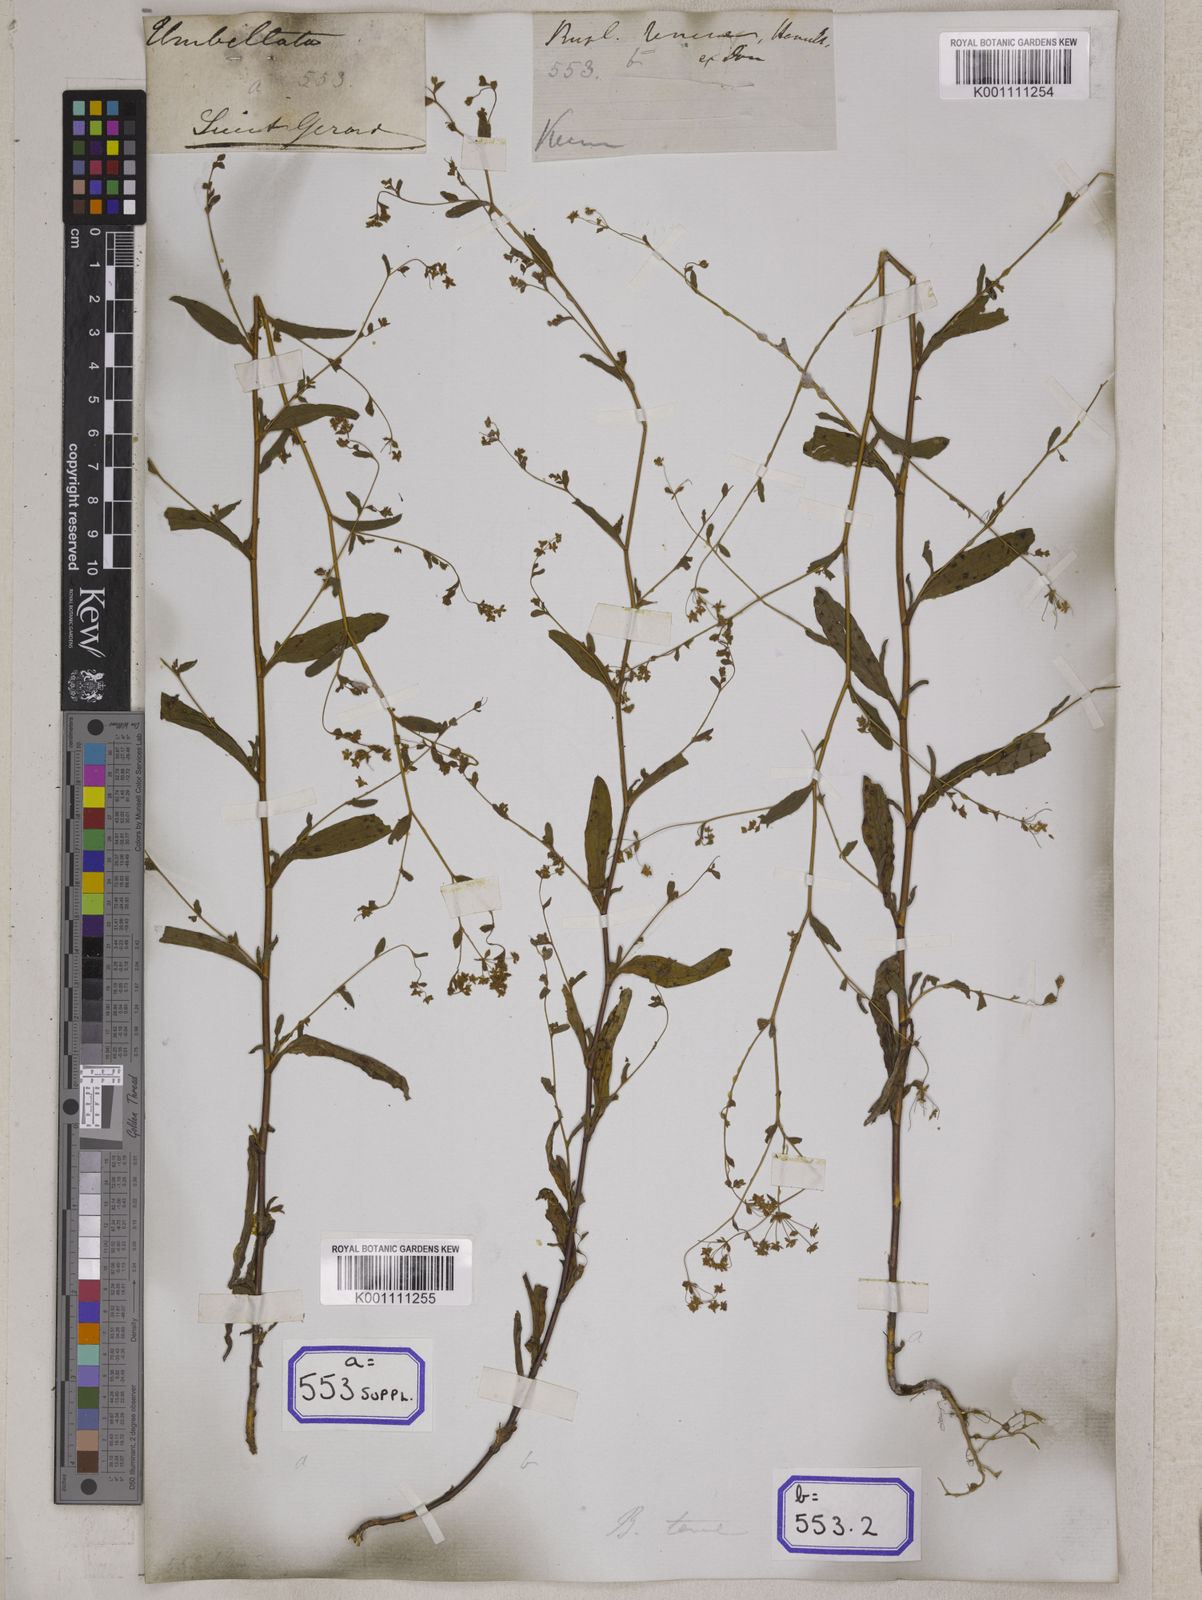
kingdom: Plantae
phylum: Tracheophyta
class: Magnoliopsida
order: Apiales
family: Apiaceae
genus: Bupleurum
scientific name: Bupleurum
